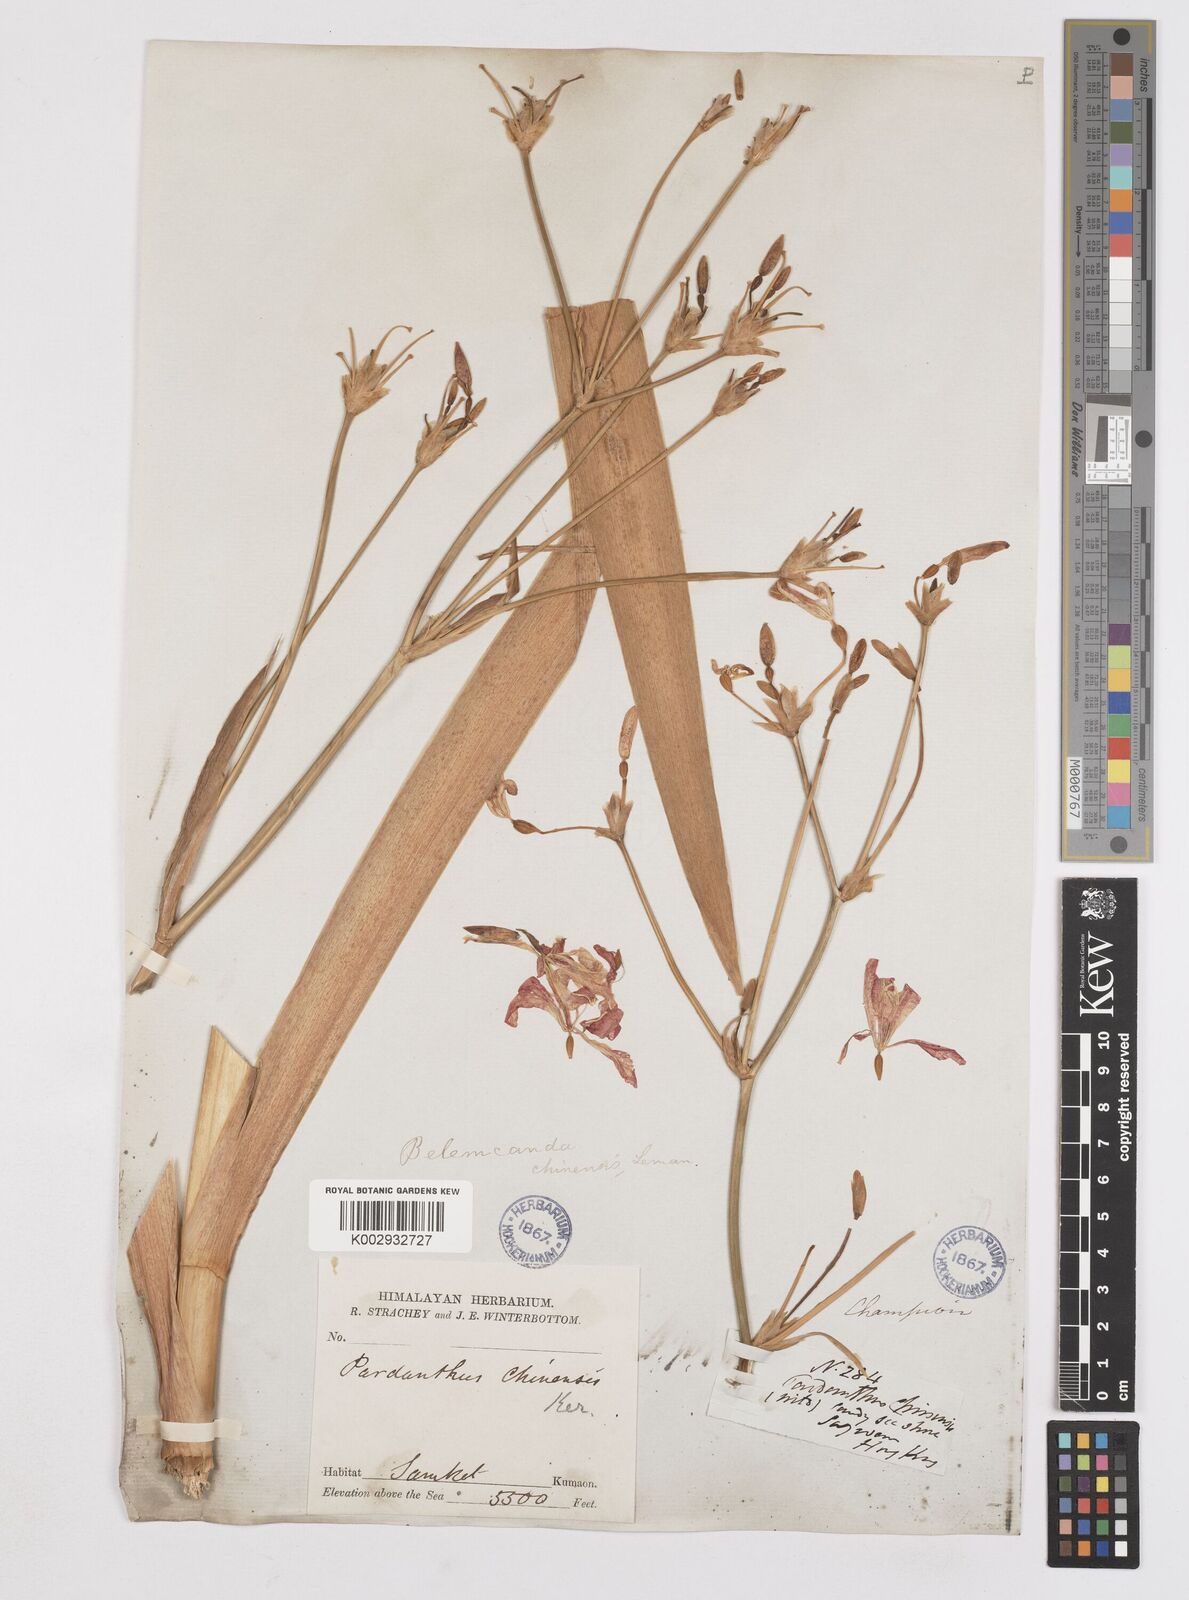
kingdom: Plantae
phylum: Tracheophyta
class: Liliopsida
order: Asparagales
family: Iridaceae
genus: Iris
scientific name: Iris
